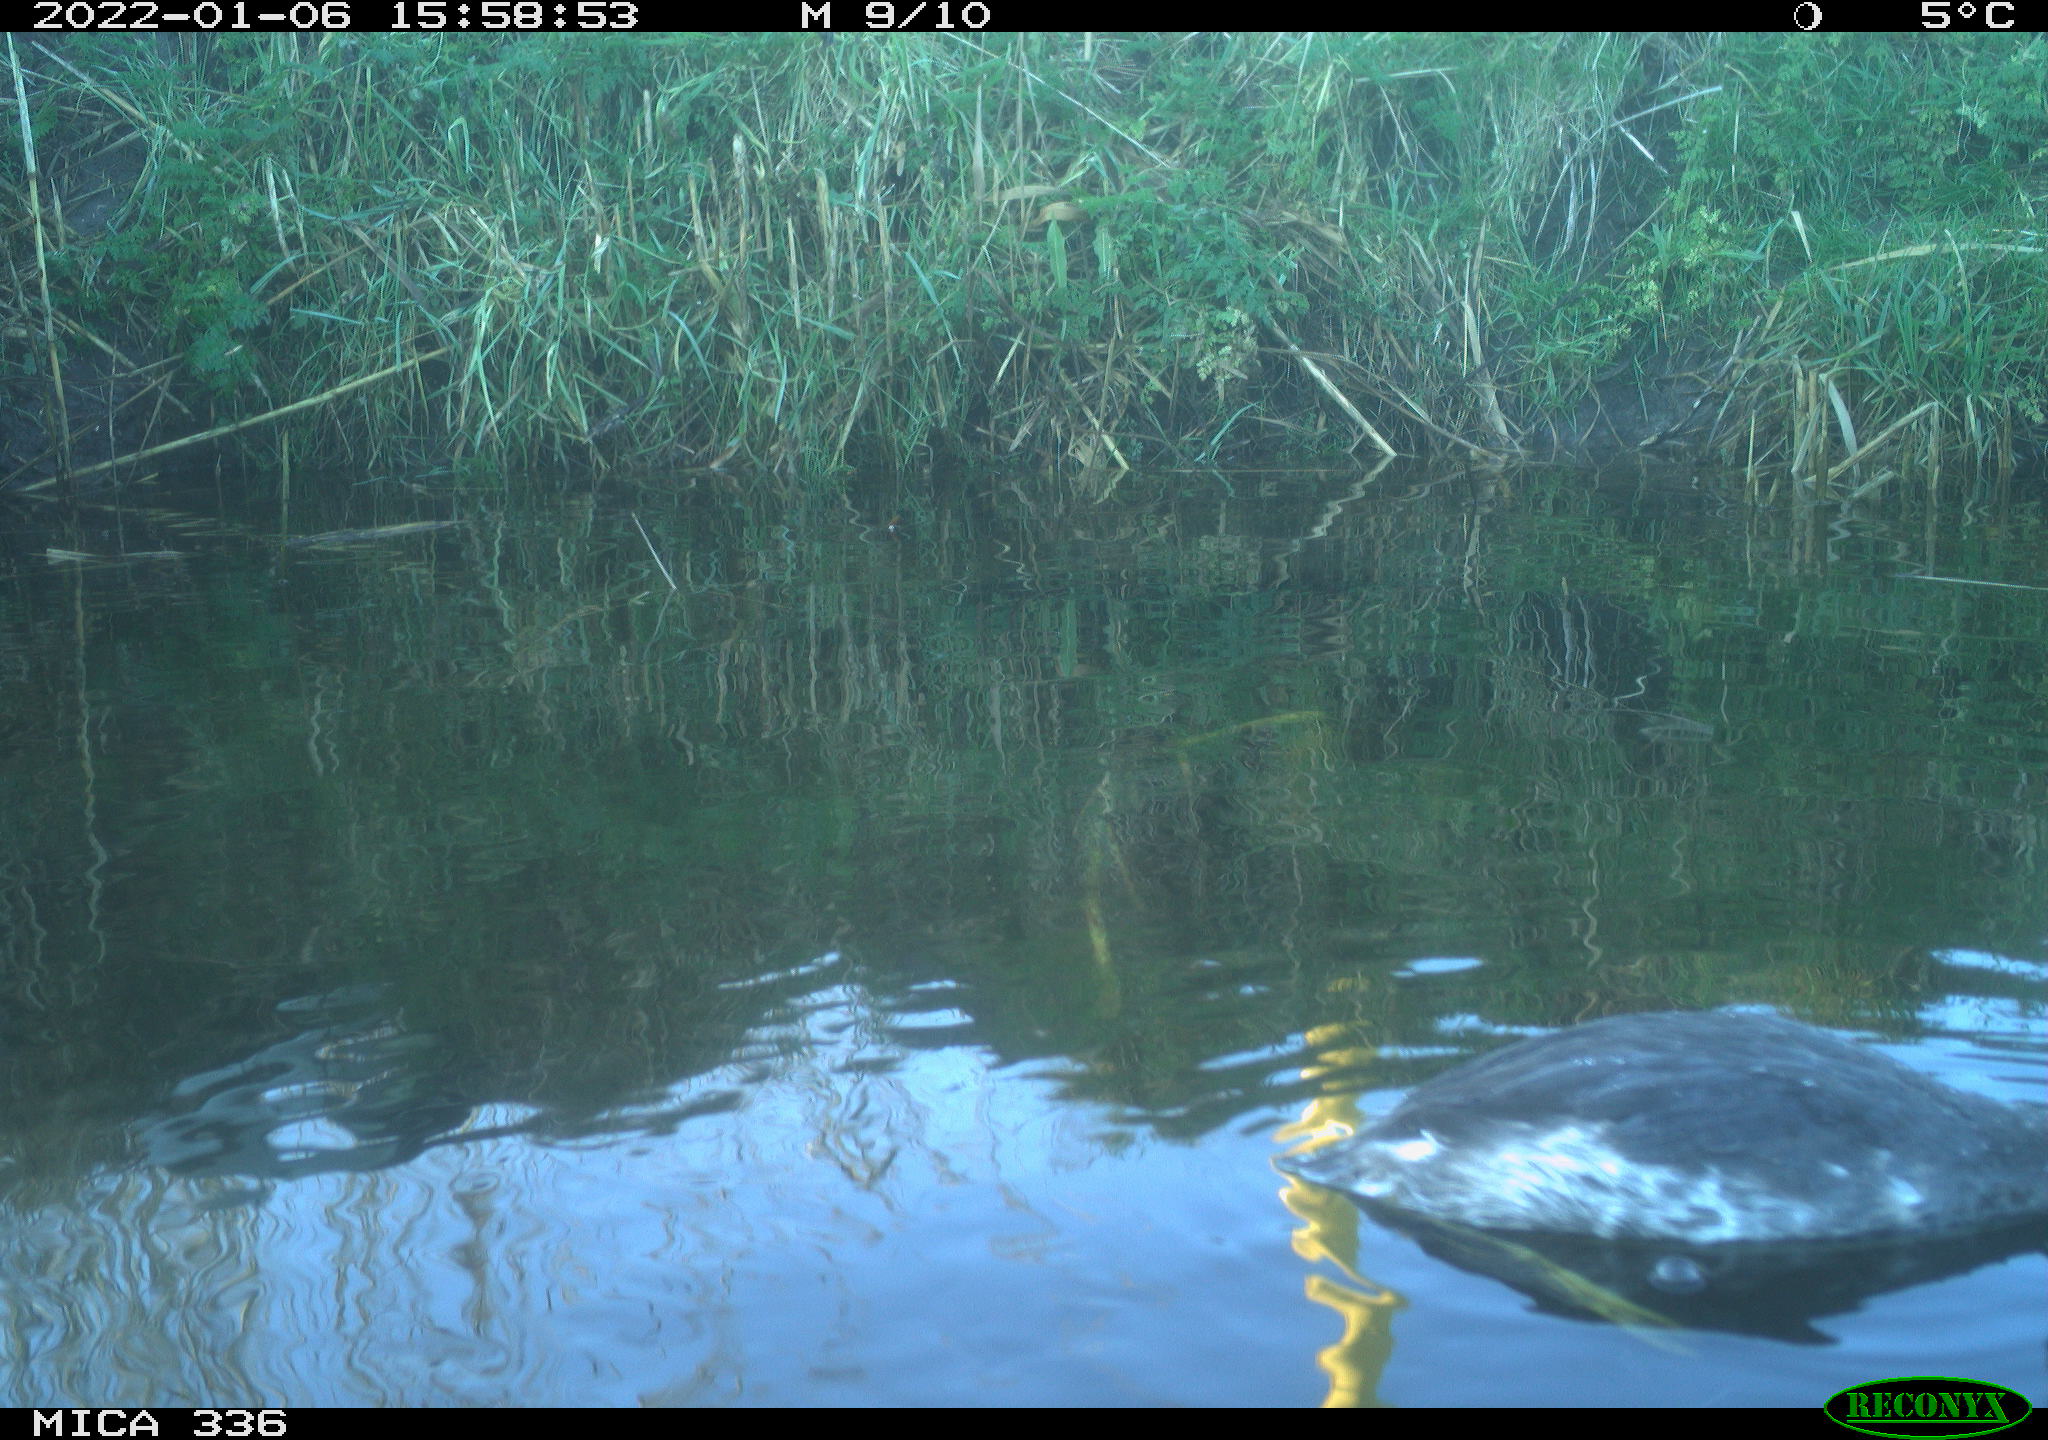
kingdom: Animalia
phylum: Chordata
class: Aves
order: Podicipediformes
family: Podicipedidae
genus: Podiceps
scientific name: Podiceps cristatus
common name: Great crested grebe
